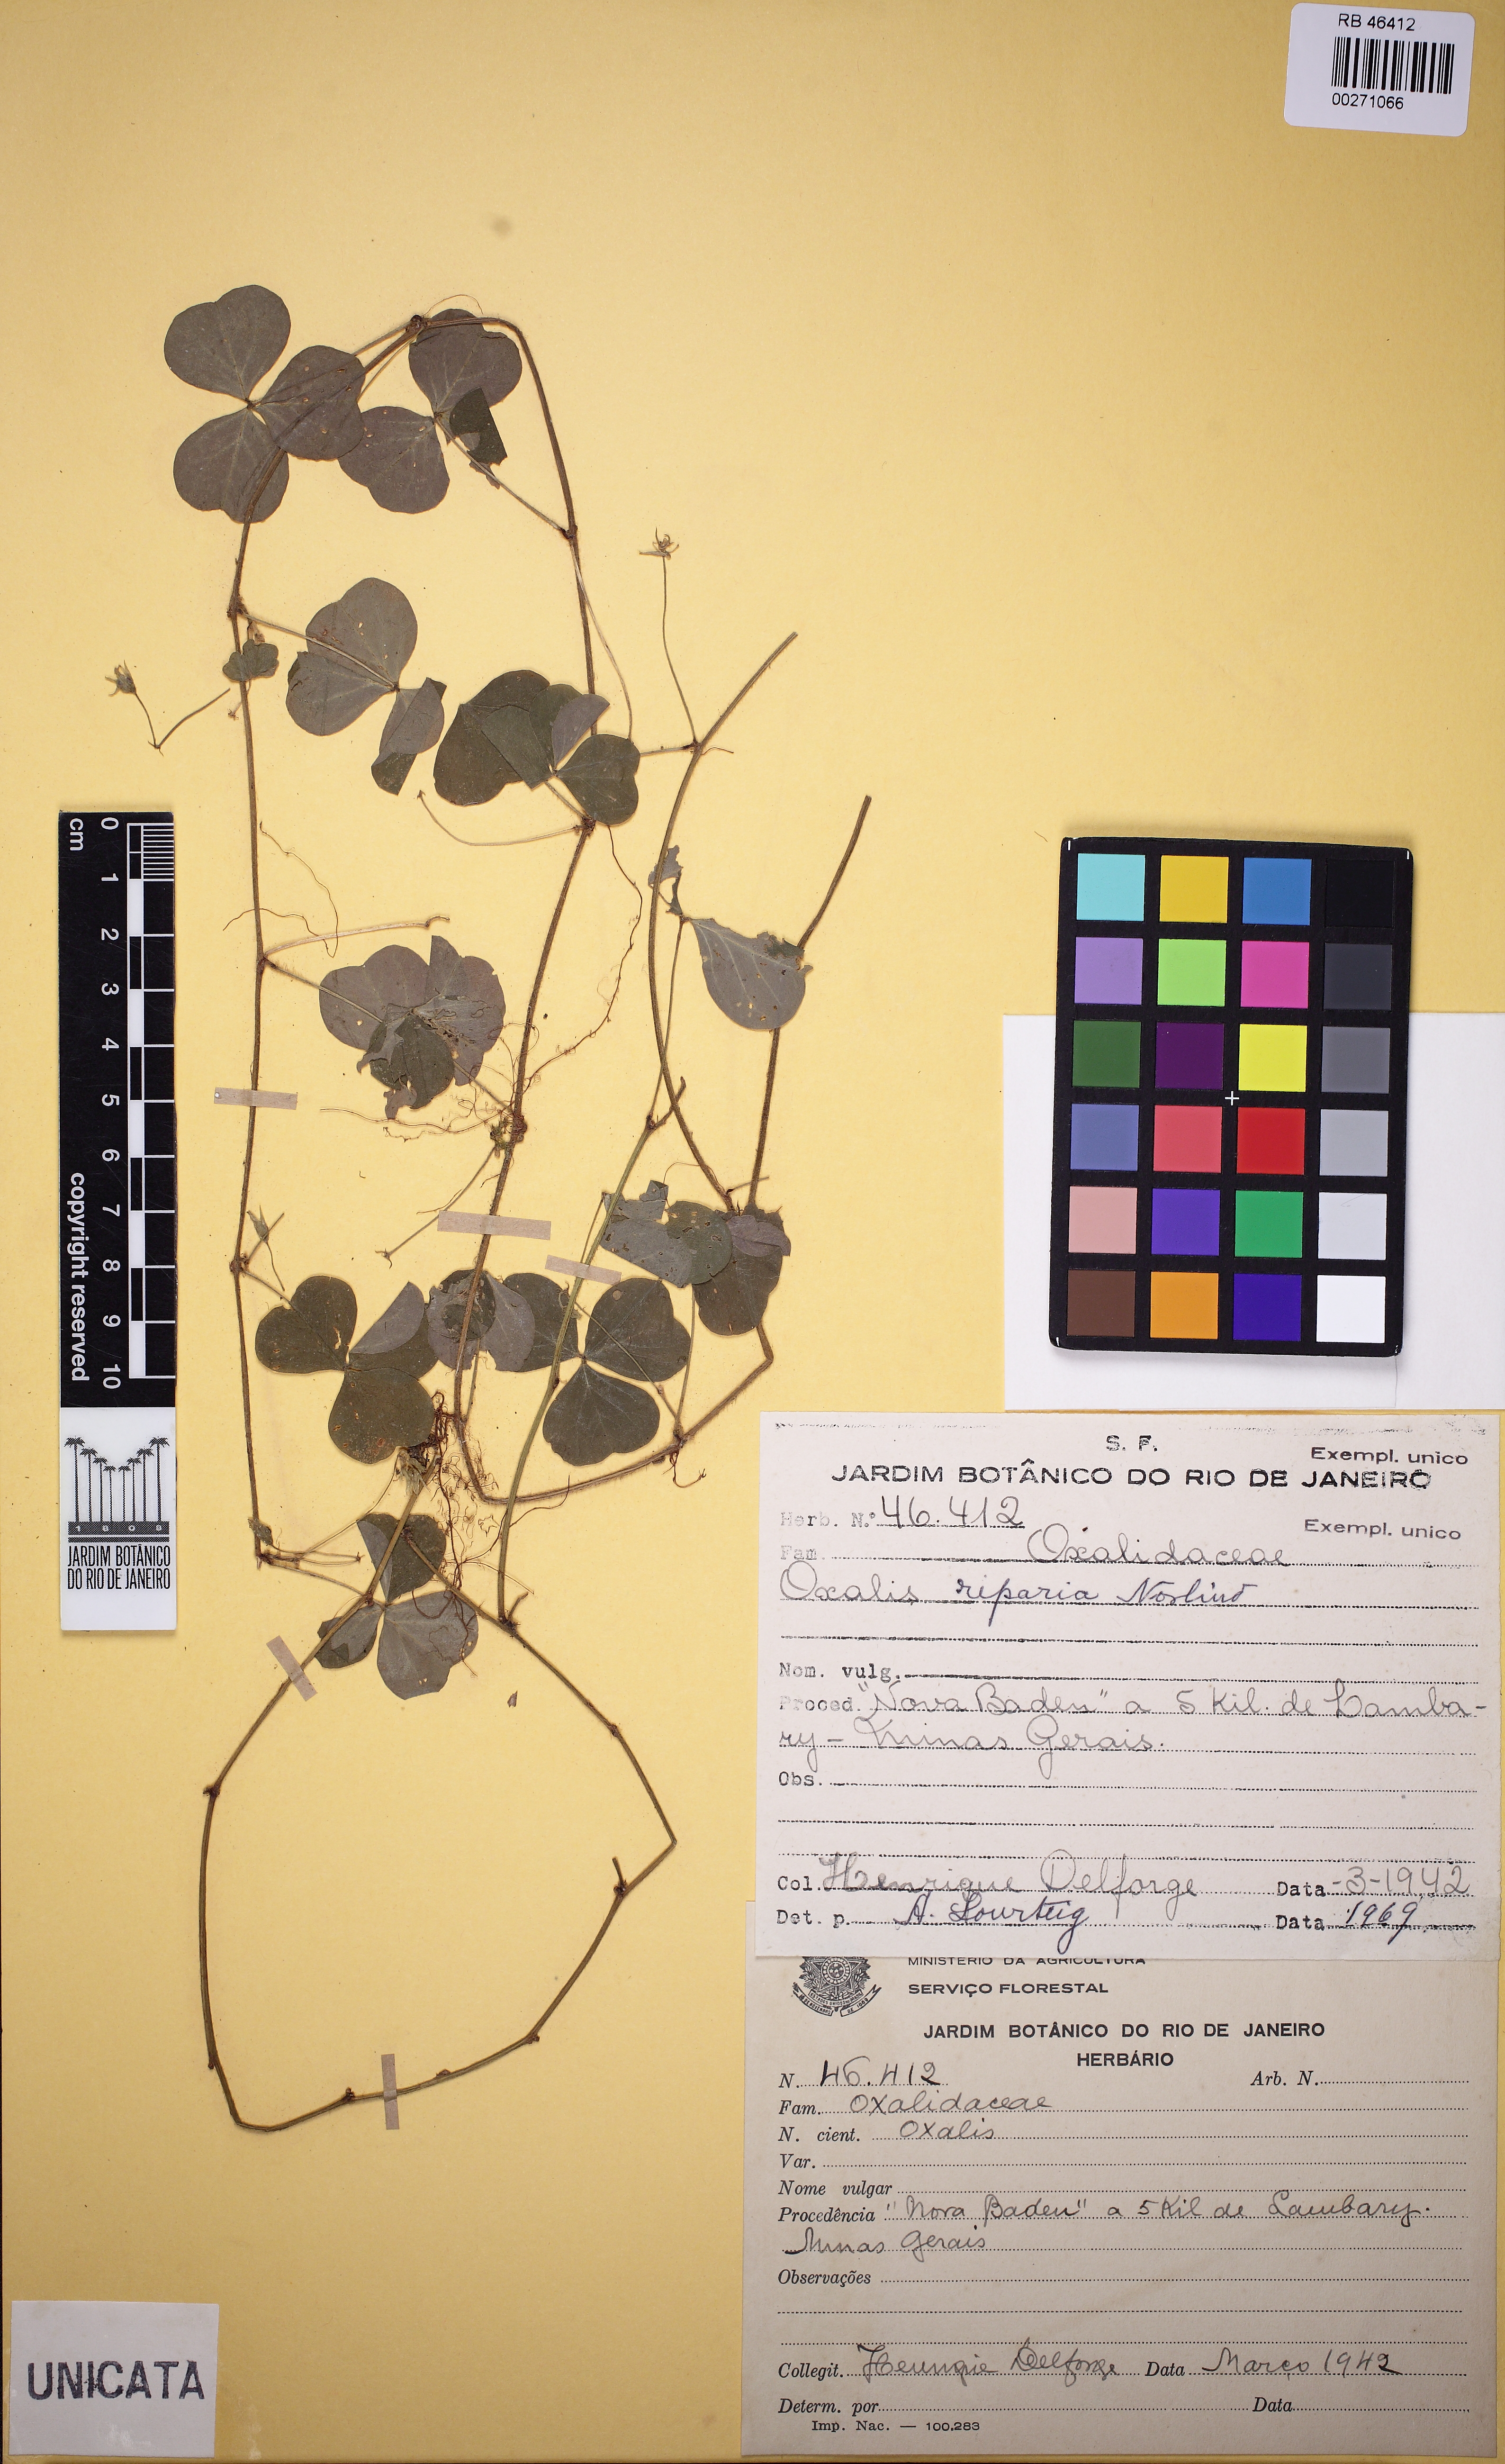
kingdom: Plantae
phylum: Tracheophyta
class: Magnoliopsida
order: Oxalidales
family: Oxalidaceae
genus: Oxalis
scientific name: Oxalis riparia
